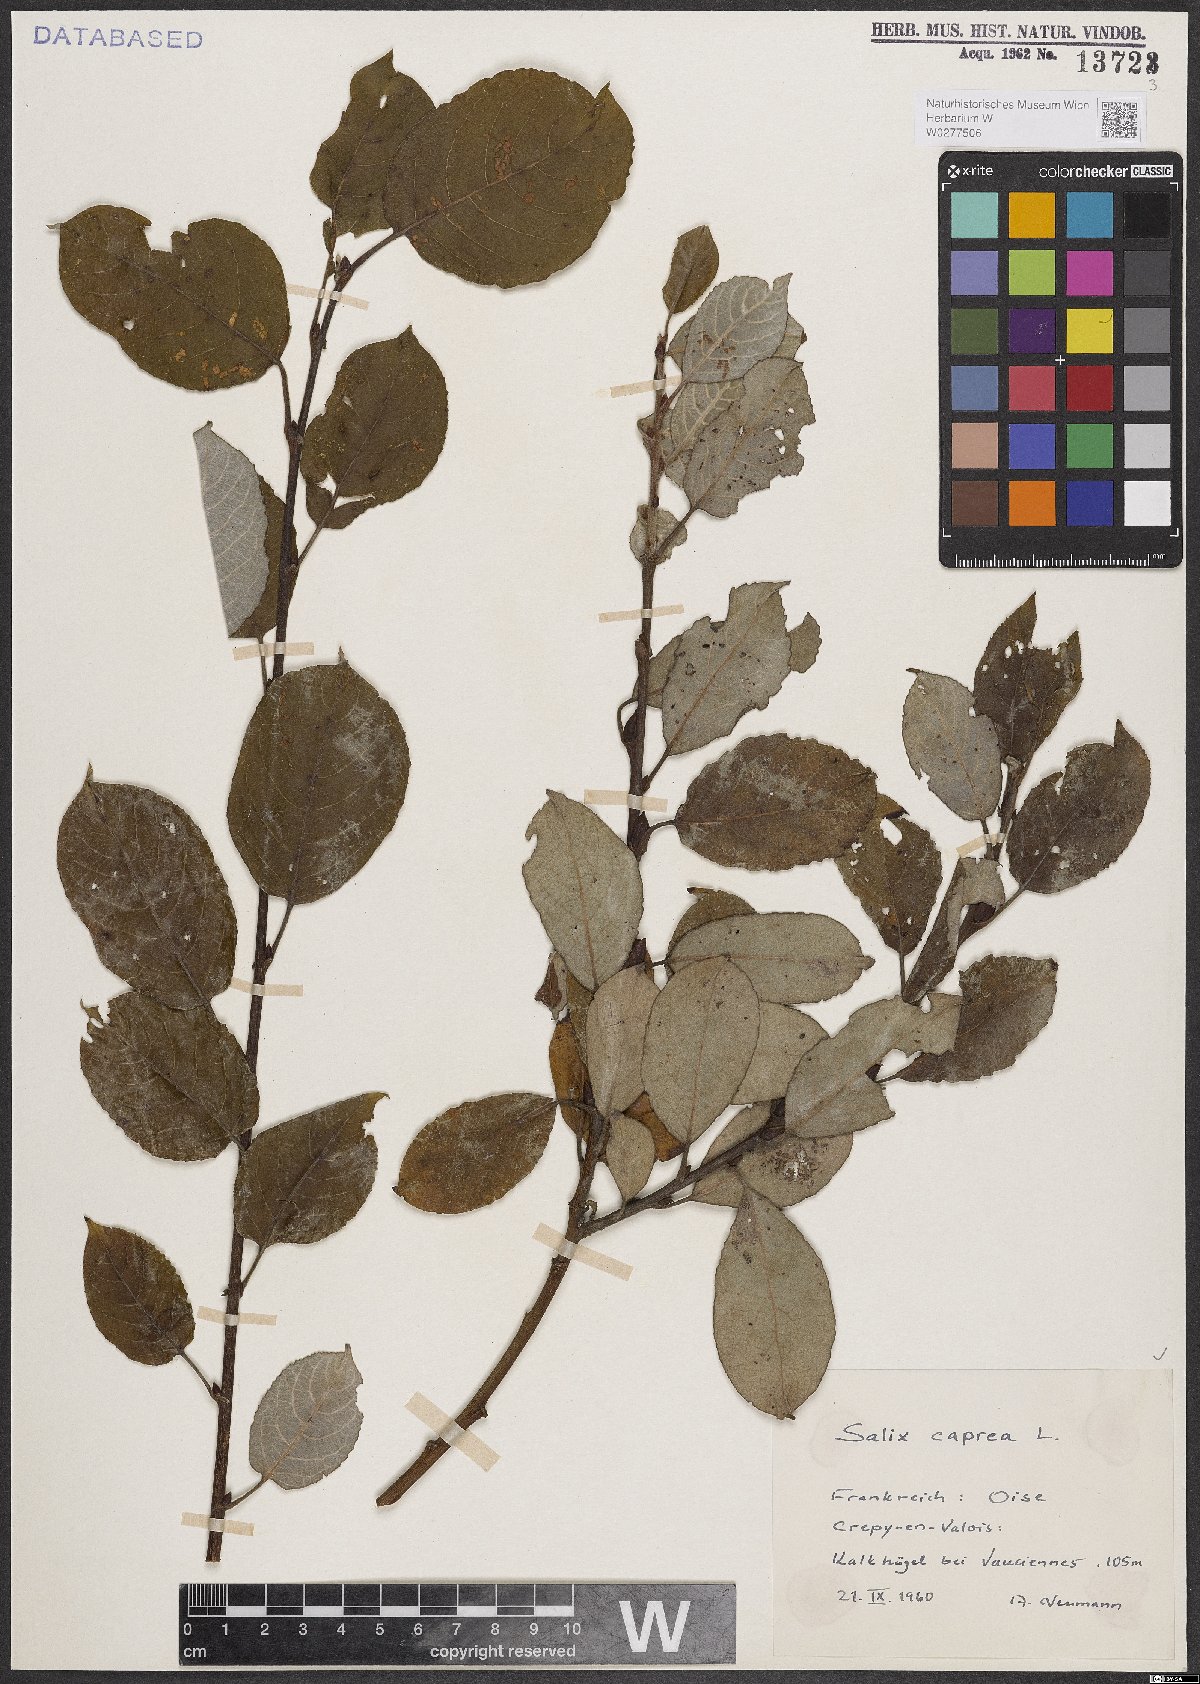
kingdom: Plantae
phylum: Tracheophyta
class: Magnoliopsida
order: Malpighiales
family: Salicaceae
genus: Salix
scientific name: Salix caprea
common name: Goat willow
